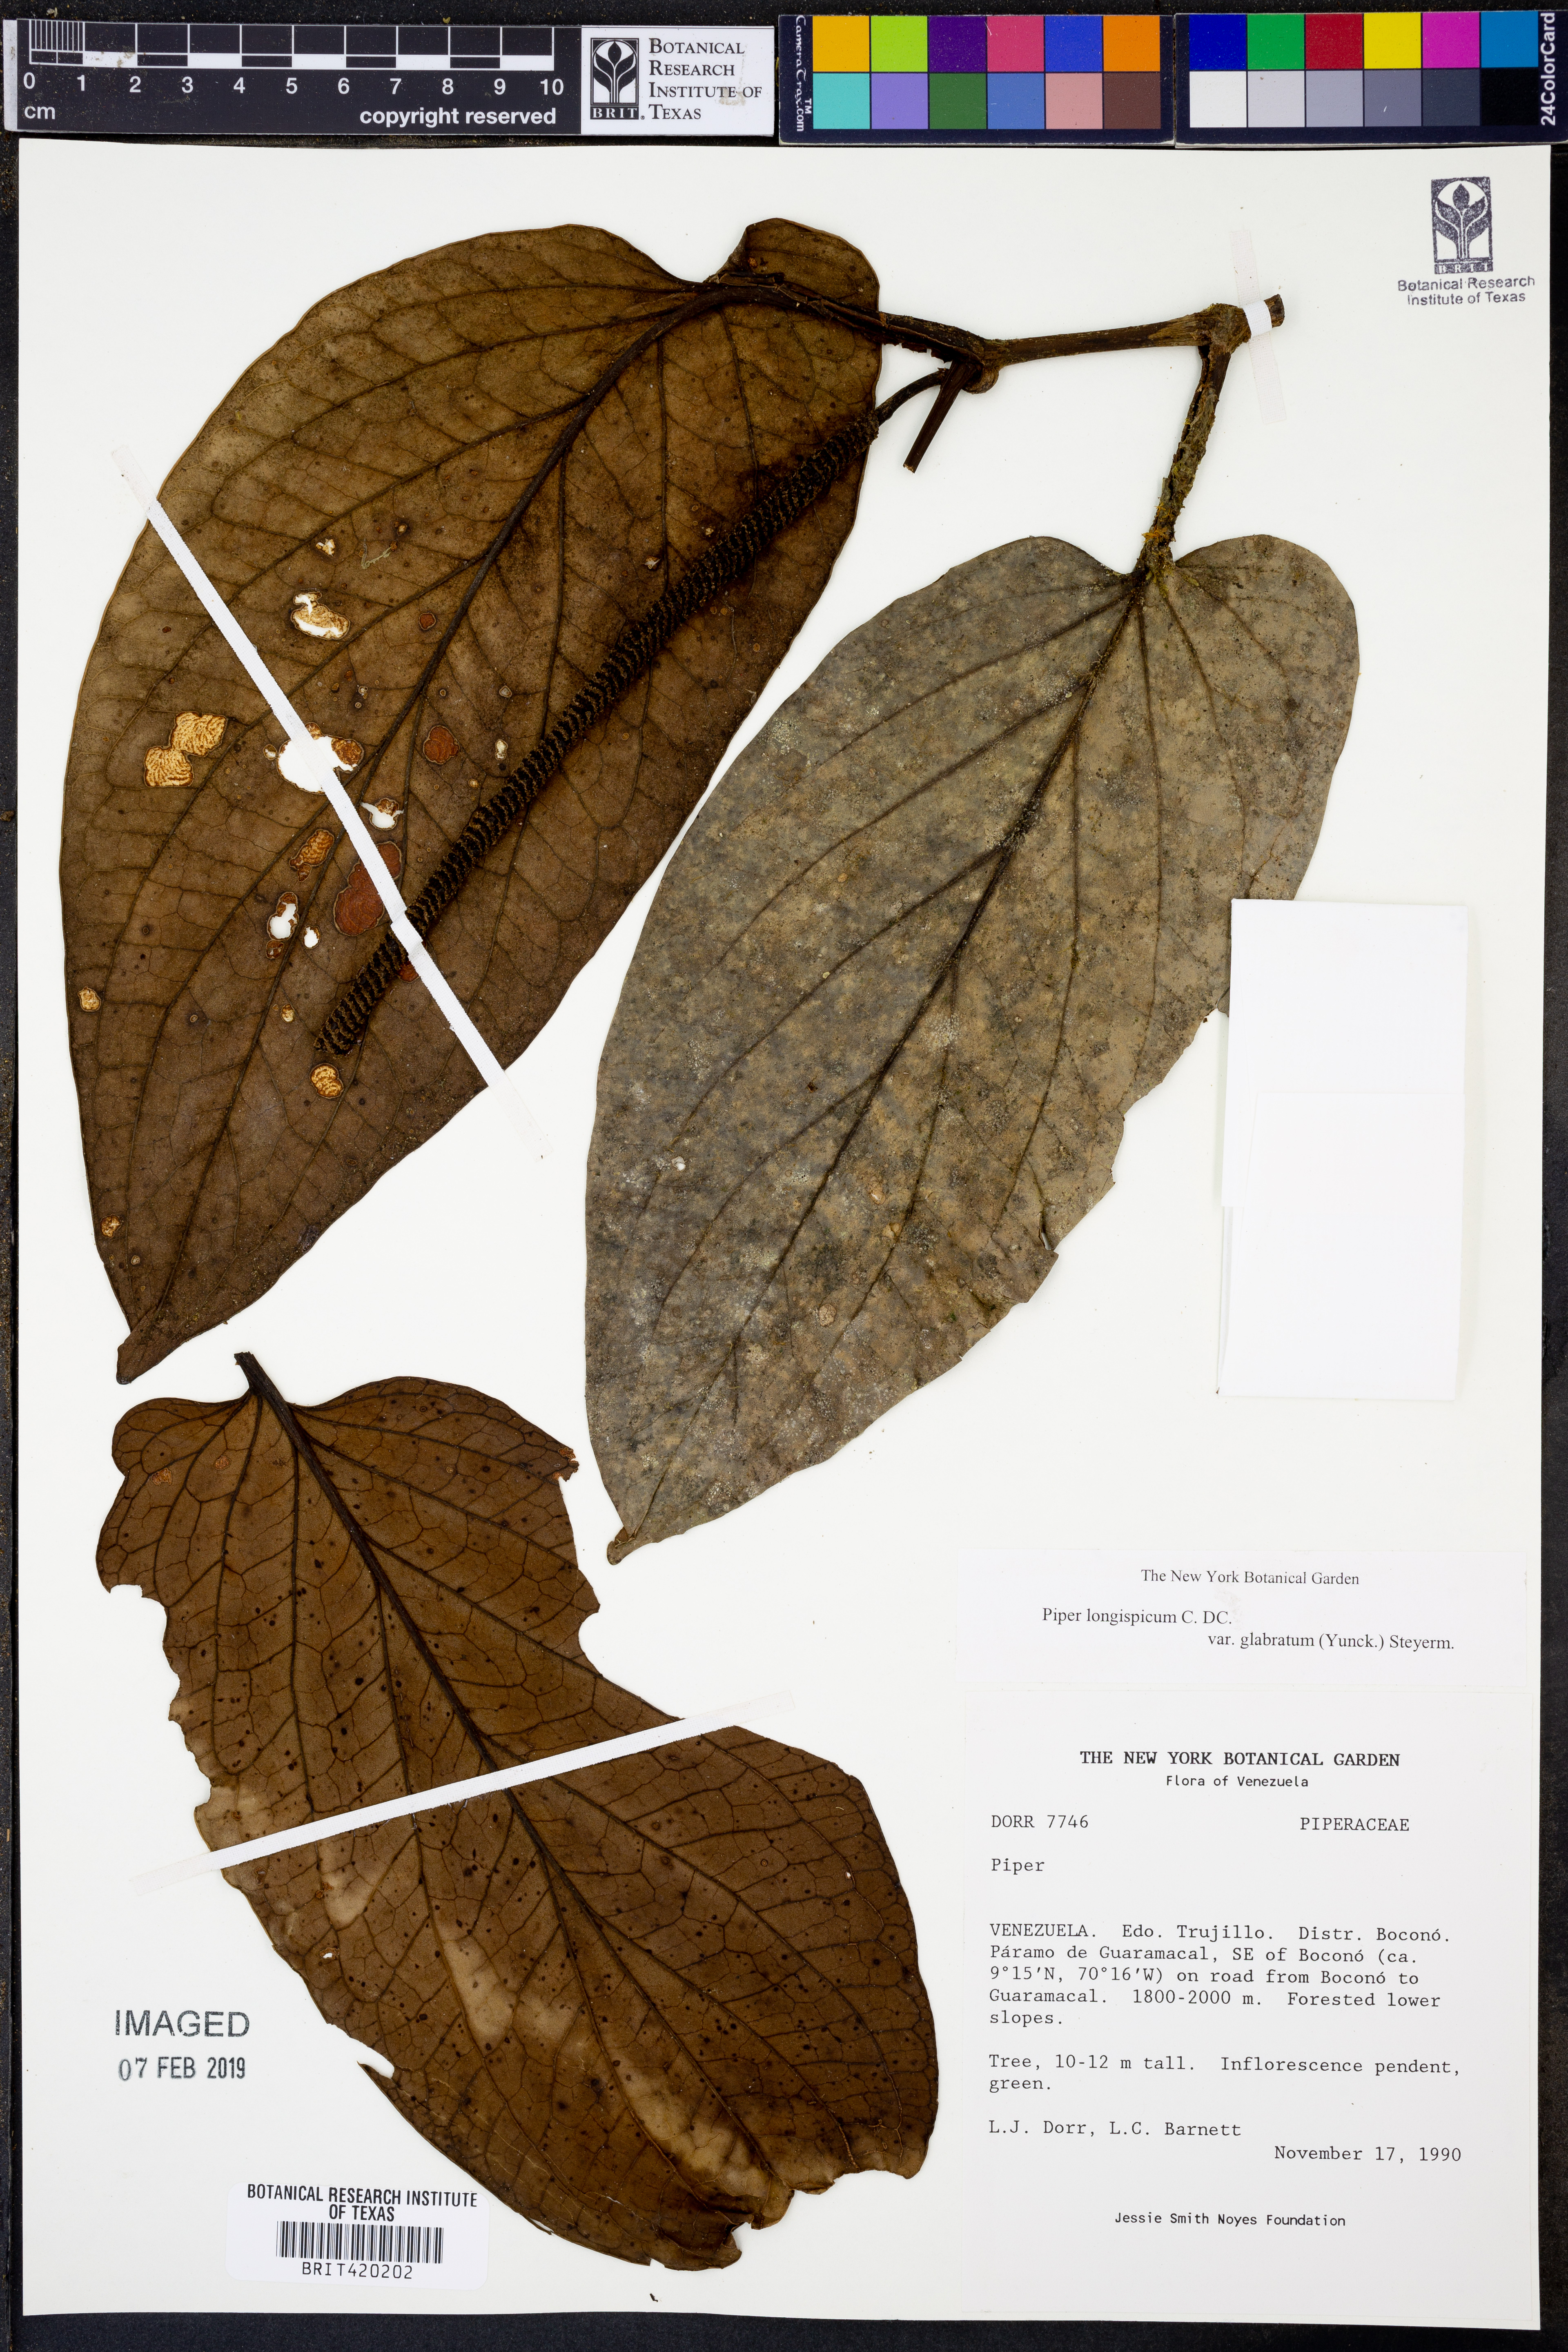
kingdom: Plantae
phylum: Tracheophyta
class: Magnoliopsida
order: Piperales
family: Piperaceae
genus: Piper
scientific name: Piper longispicum
